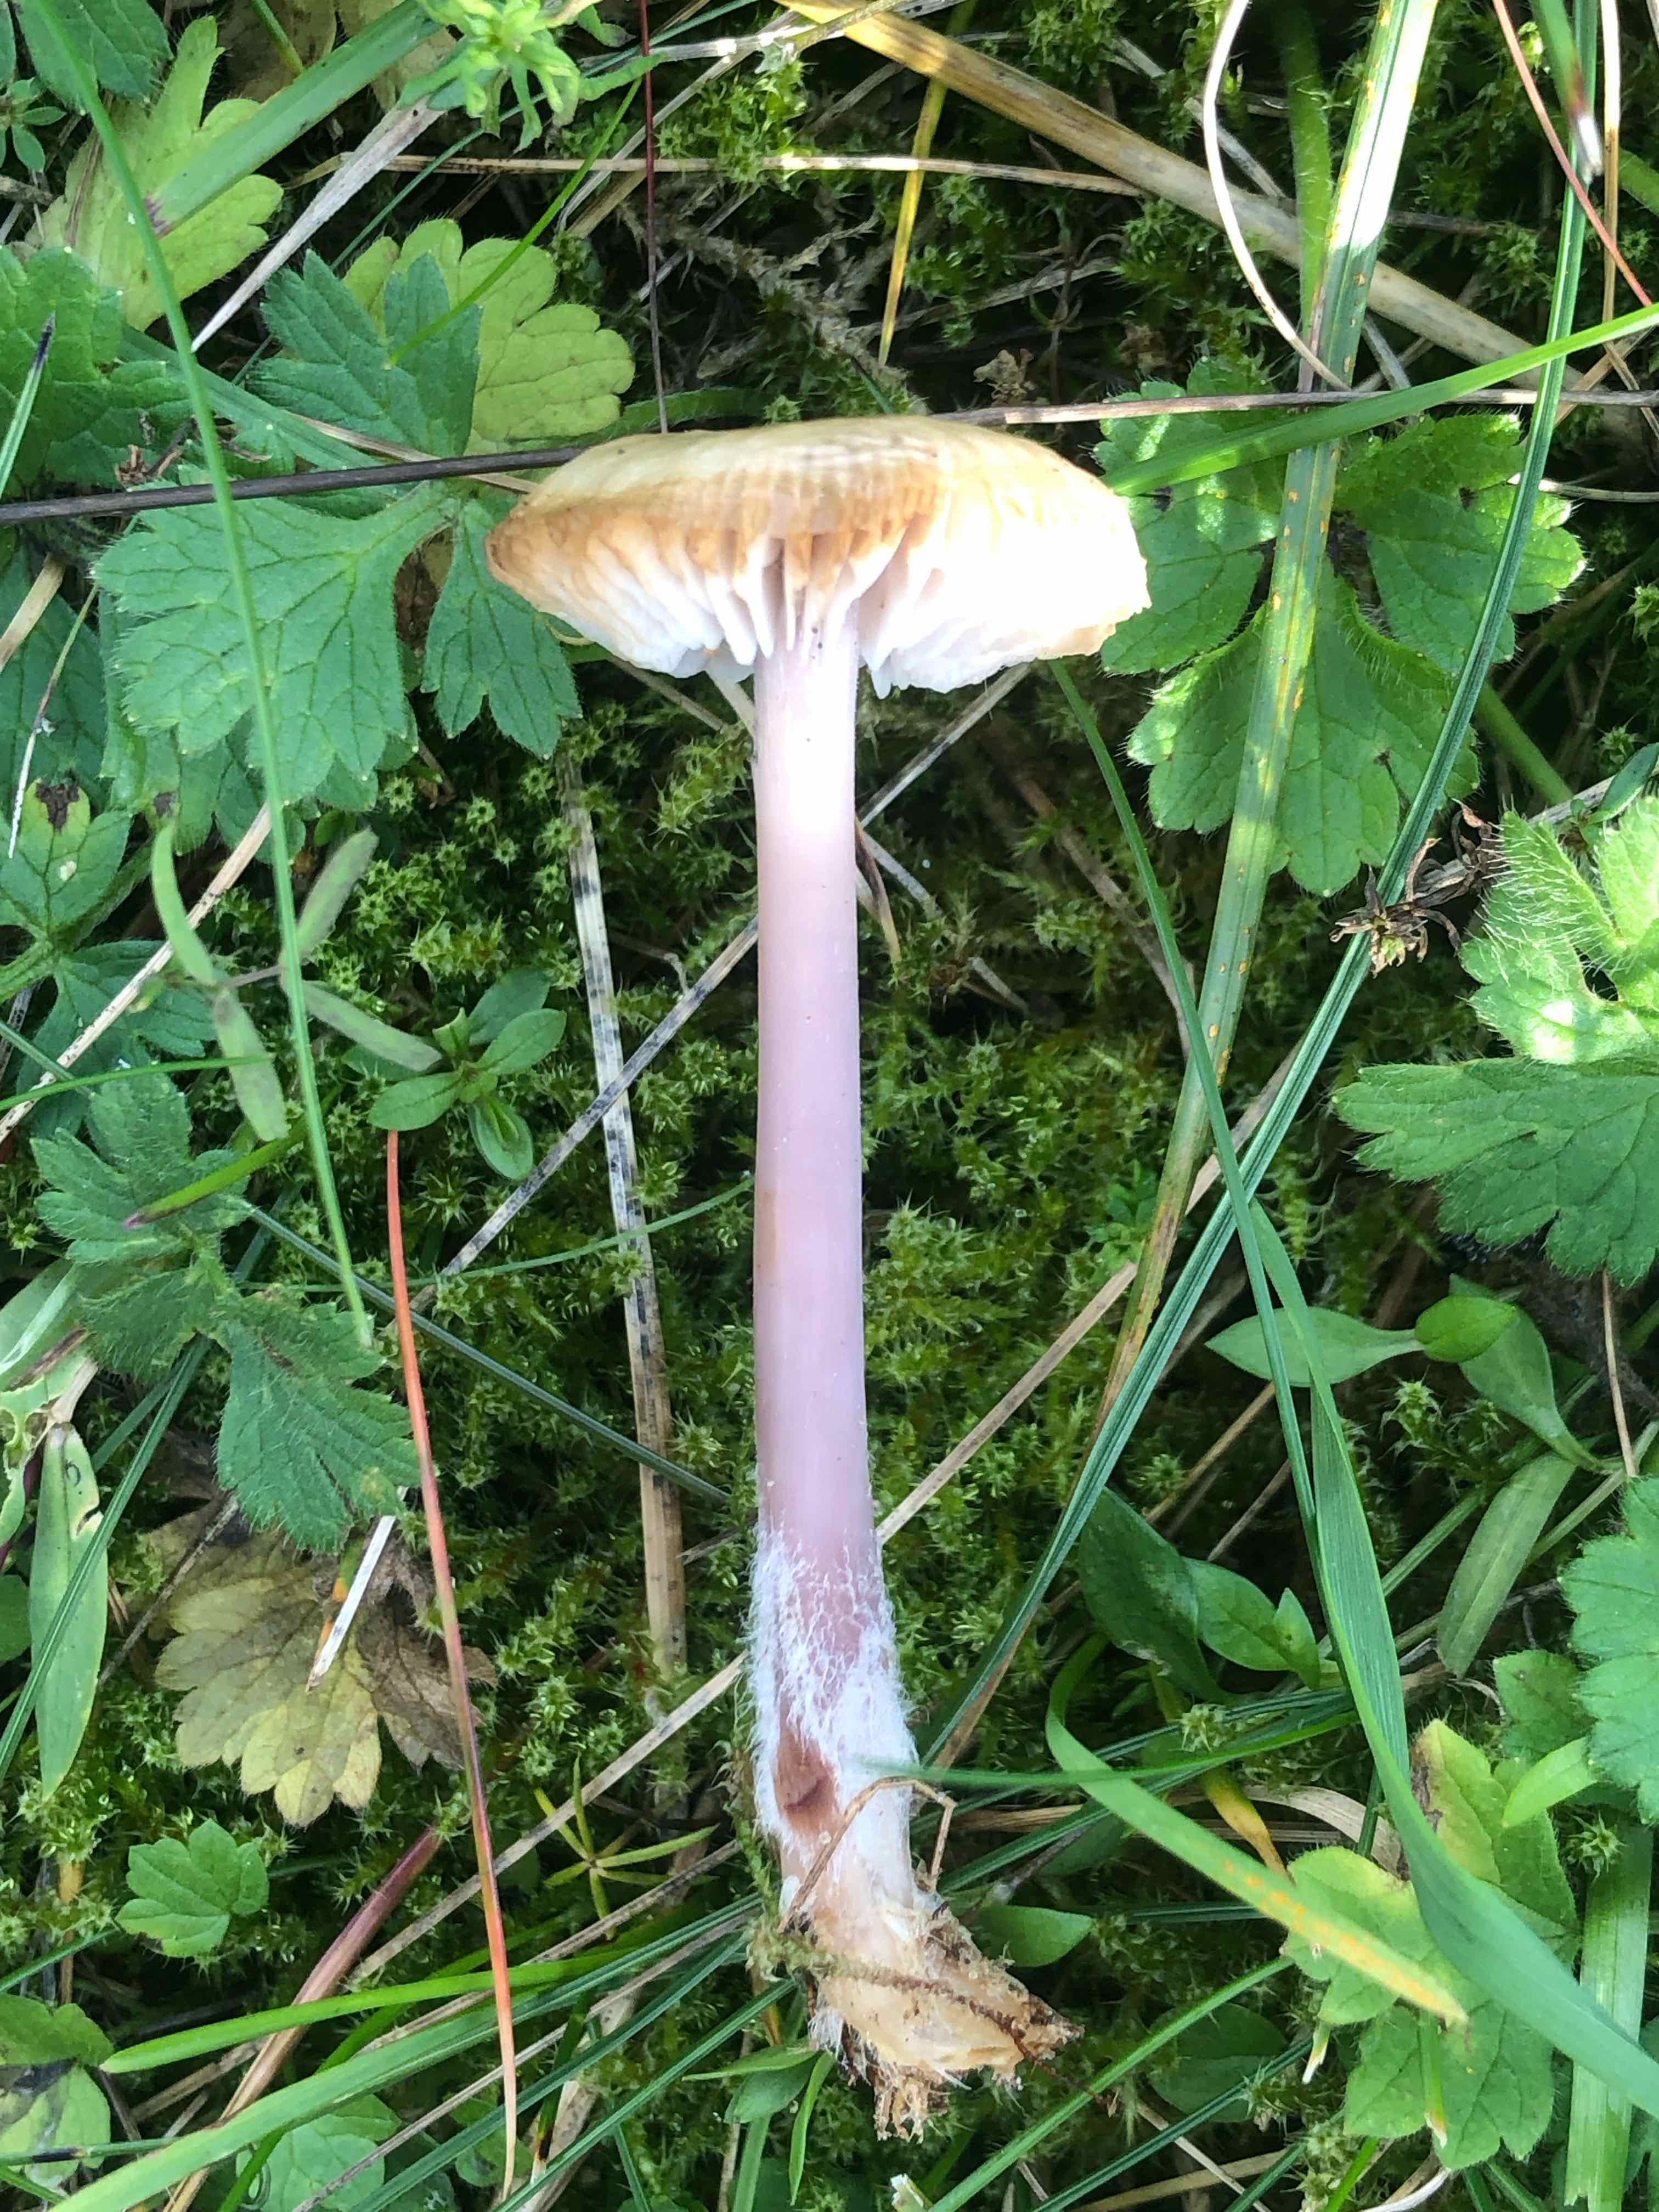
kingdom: Fungi
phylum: Basidiomycota
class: Agaricomycetes
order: Agaricales
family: Mycenaceae
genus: Mycena
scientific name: Mycena luteovariegata
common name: lillagul huesvamp
